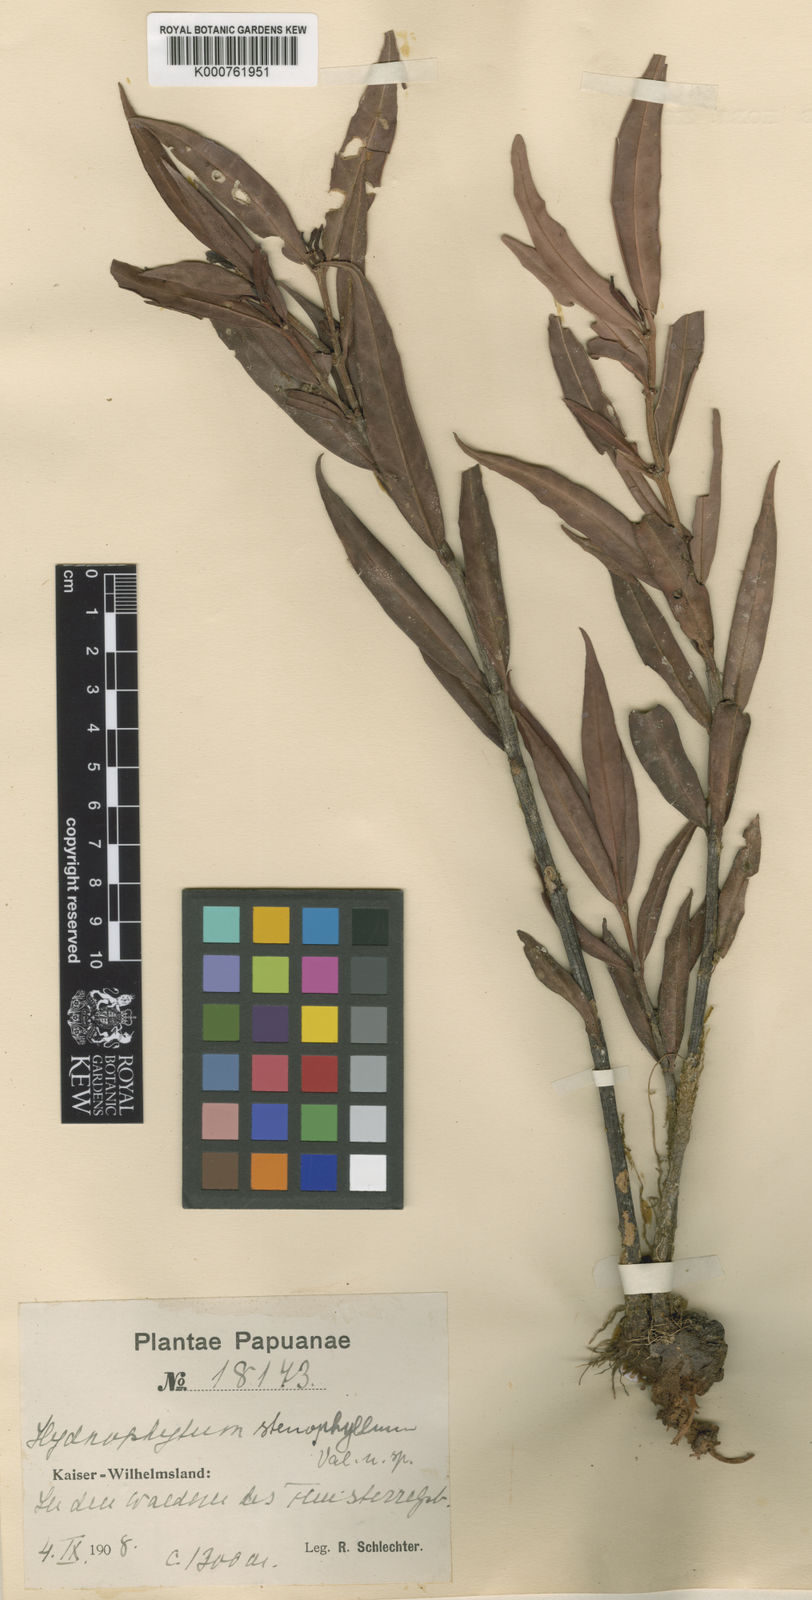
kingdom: Plantae
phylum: Tracheophyta
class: Magnoliopsida
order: Gentianales
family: Rubiaceae
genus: Hydnophytum
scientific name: Hydnophytum stenophyllum
